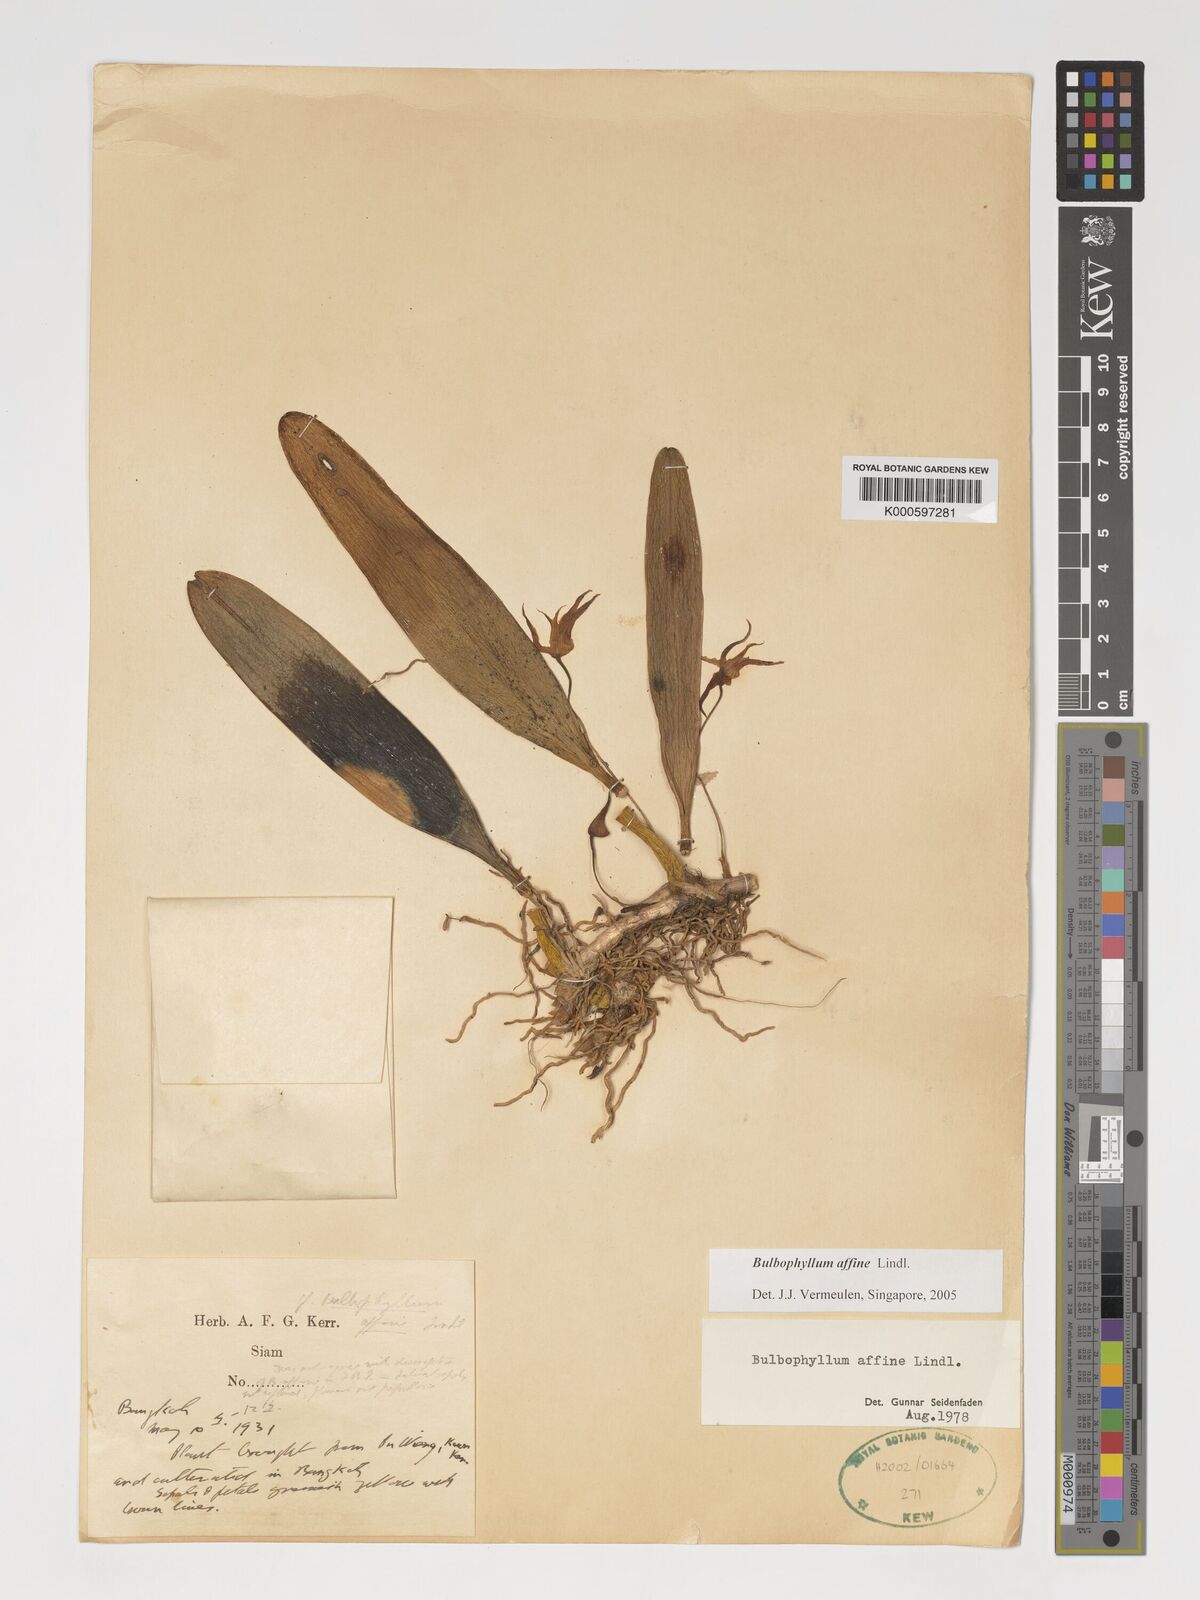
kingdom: Plantae
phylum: Tracheophyta
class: Liliopsida
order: Asparagales
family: Orchidaceae
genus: Bulbophyllum
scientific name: Bulbophyllum affine
